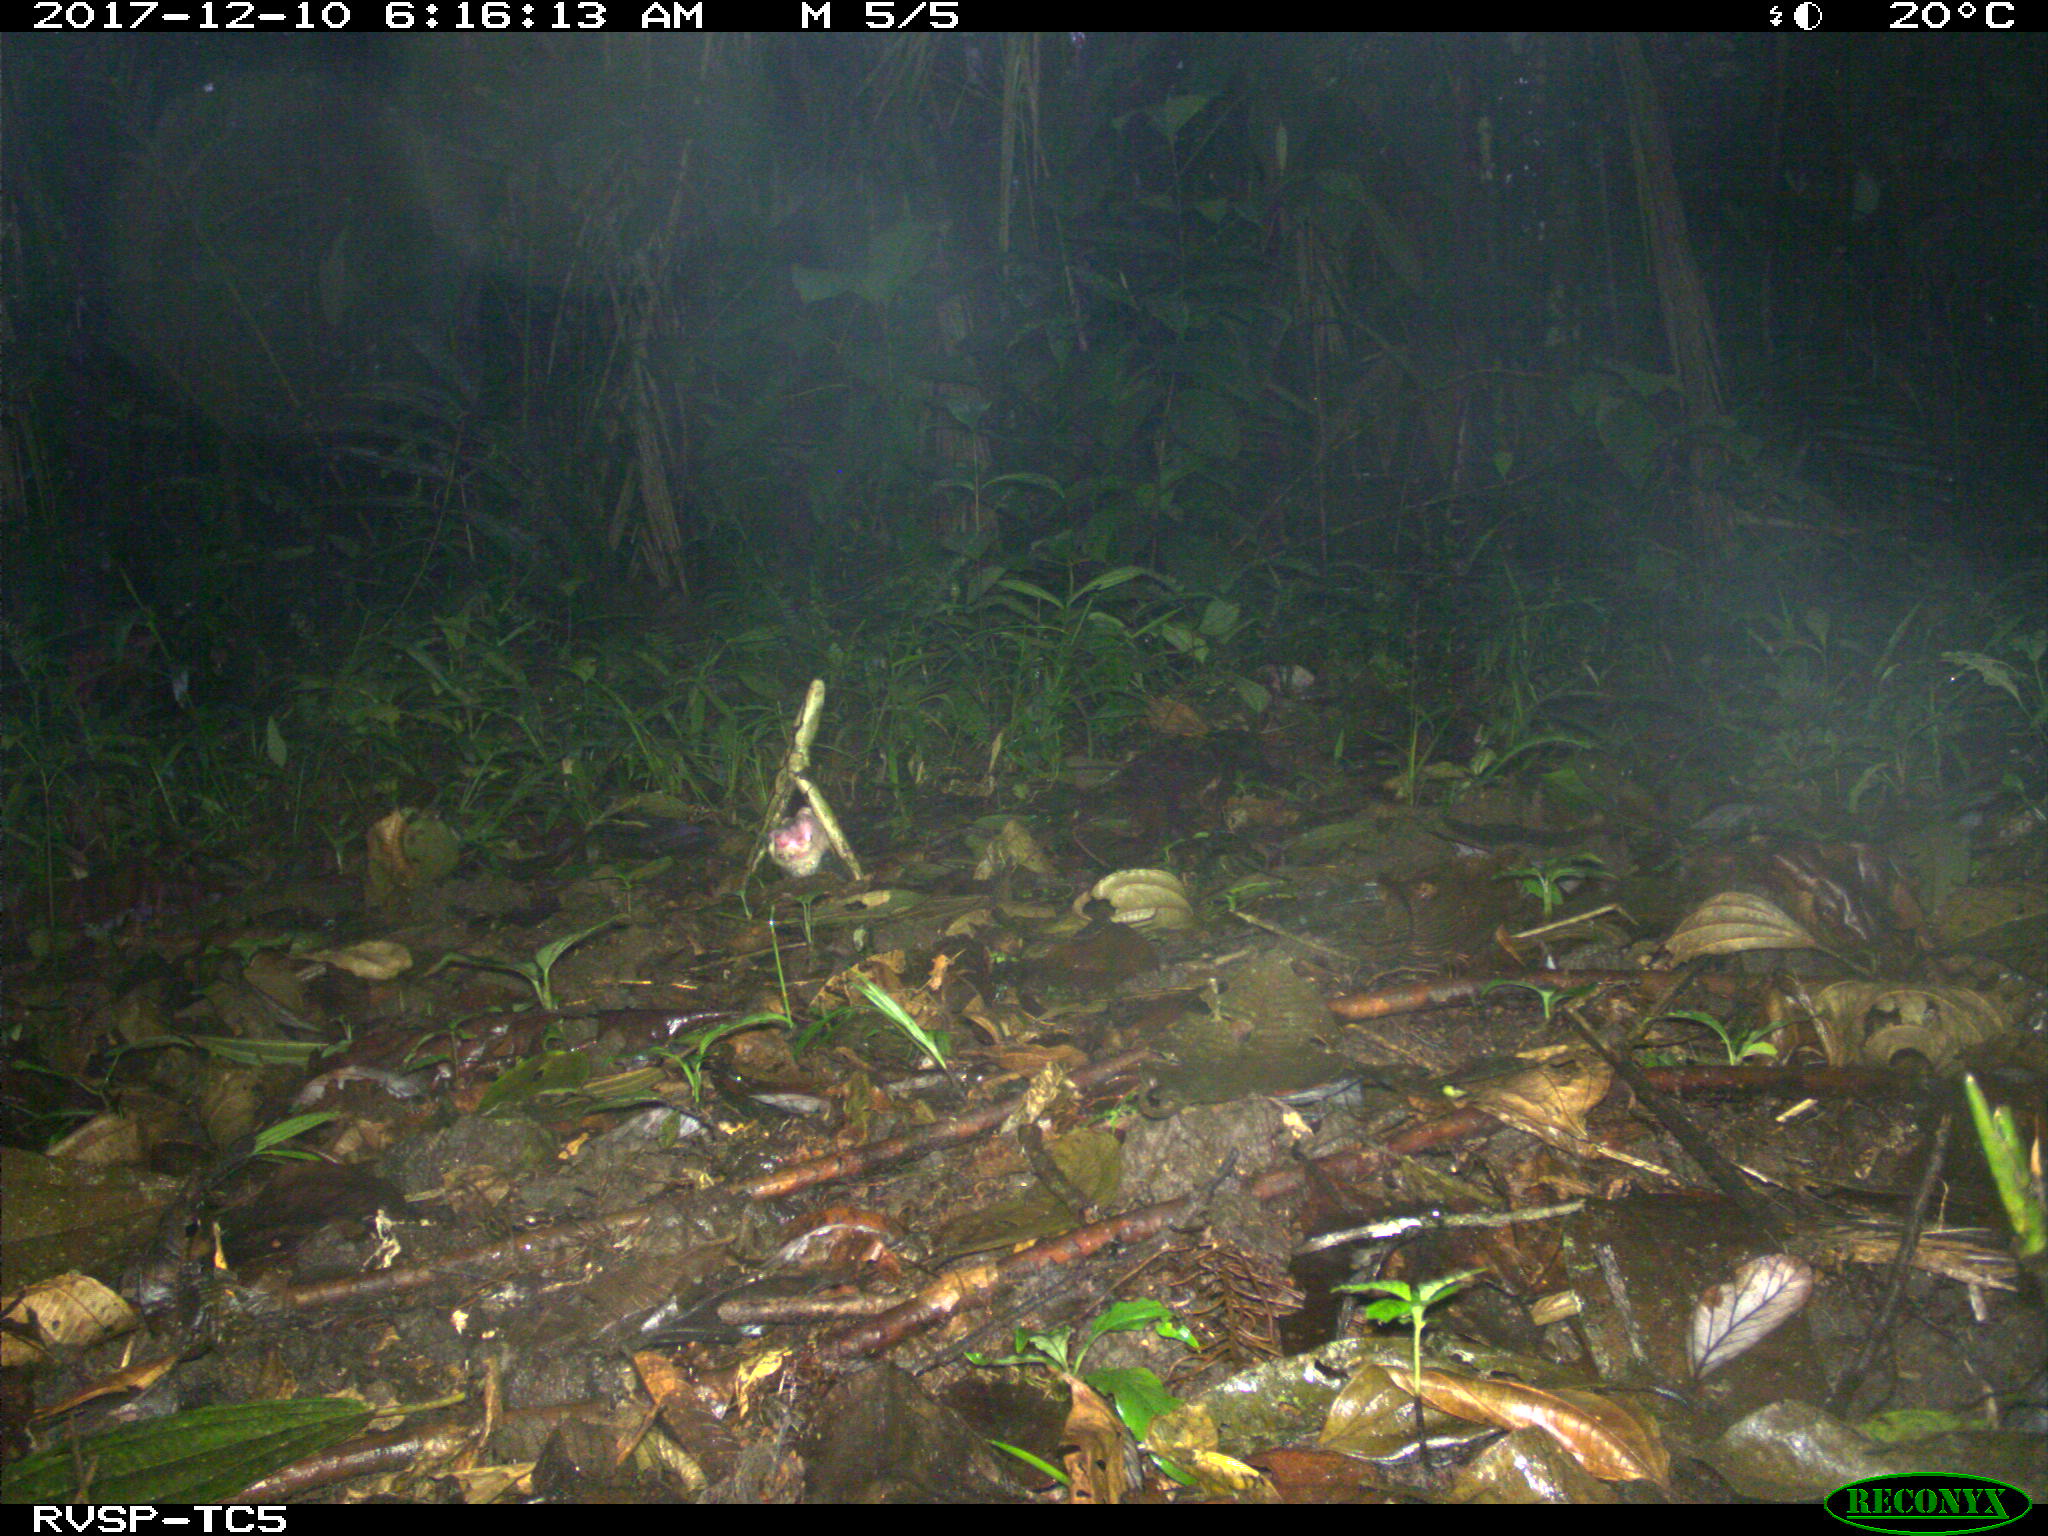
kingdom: Animalia
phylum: Chordata
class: Mammalia
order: Rodentia
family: Dasyproctidae
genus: Dasyprocta
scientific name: Dasyprocta punctata
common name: Central american agouti
